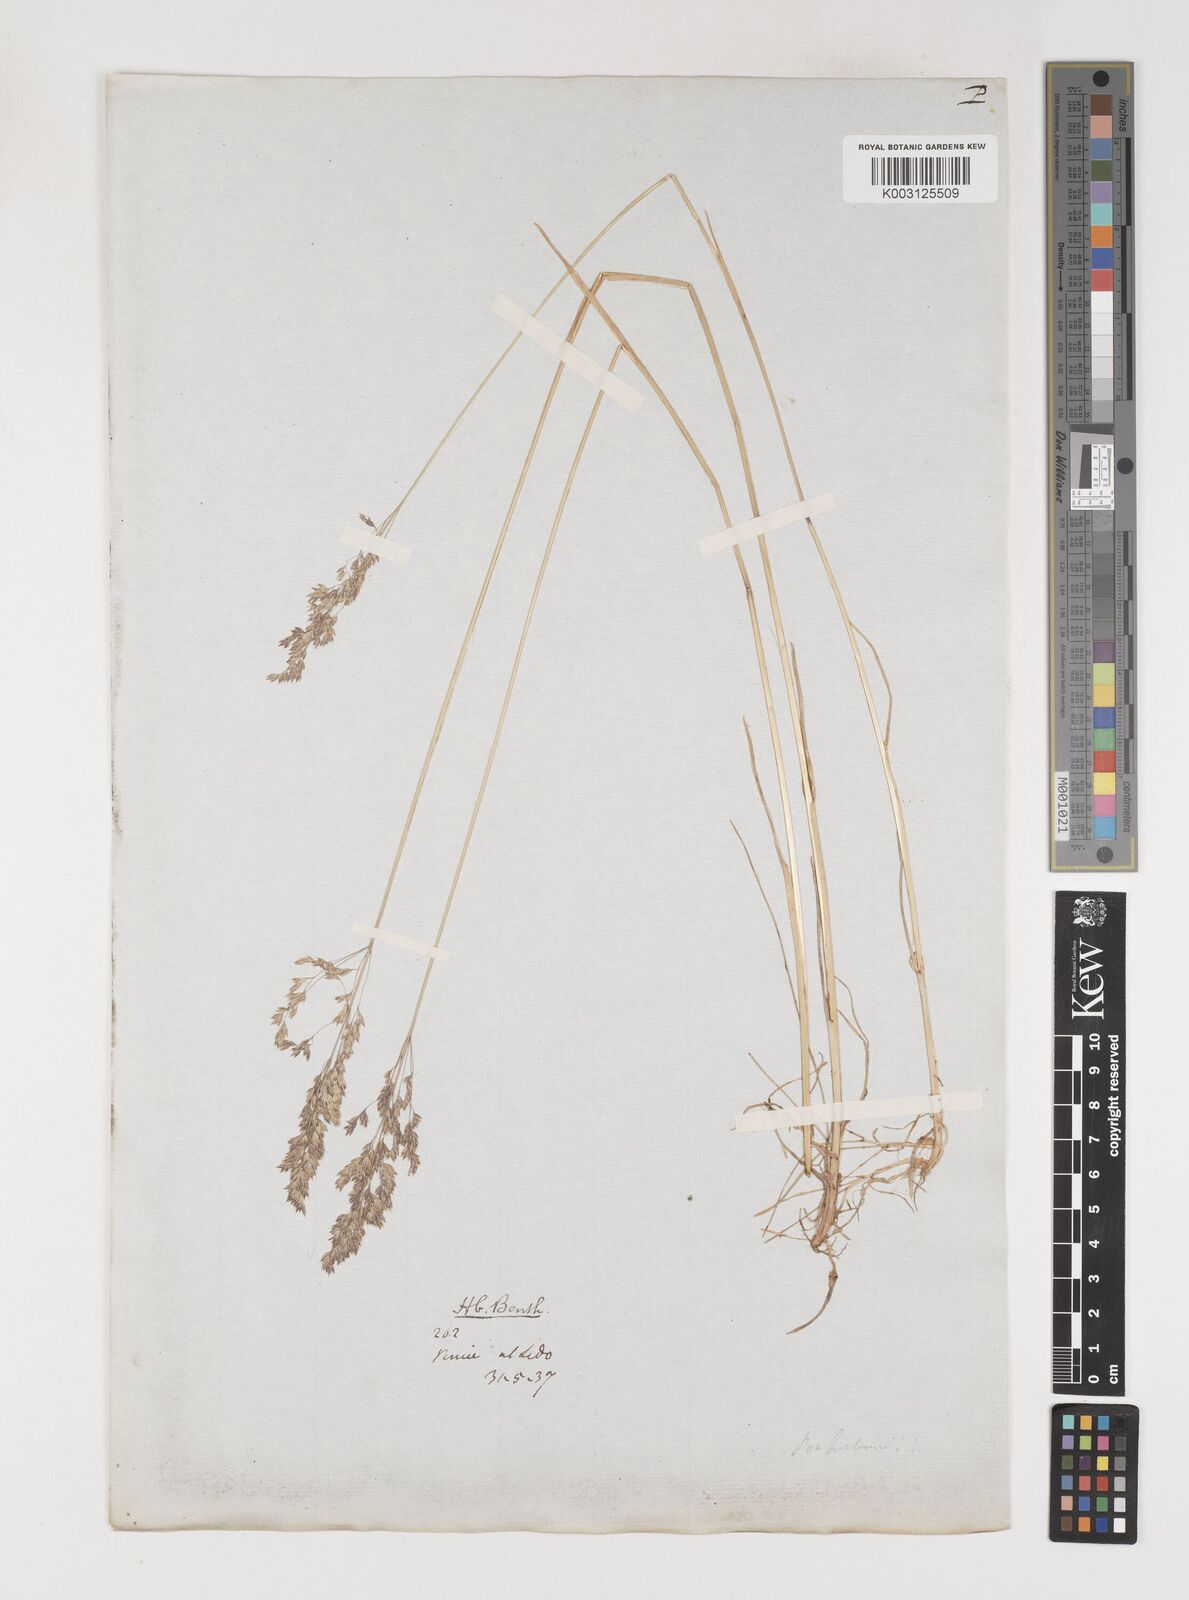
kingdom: Plantae
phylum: Tracheophyta
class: Liliopsida
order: Poales
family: Poaceae
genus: Poa
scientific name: Poa angustifolia
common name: Narrow-leaved meadow-grass
